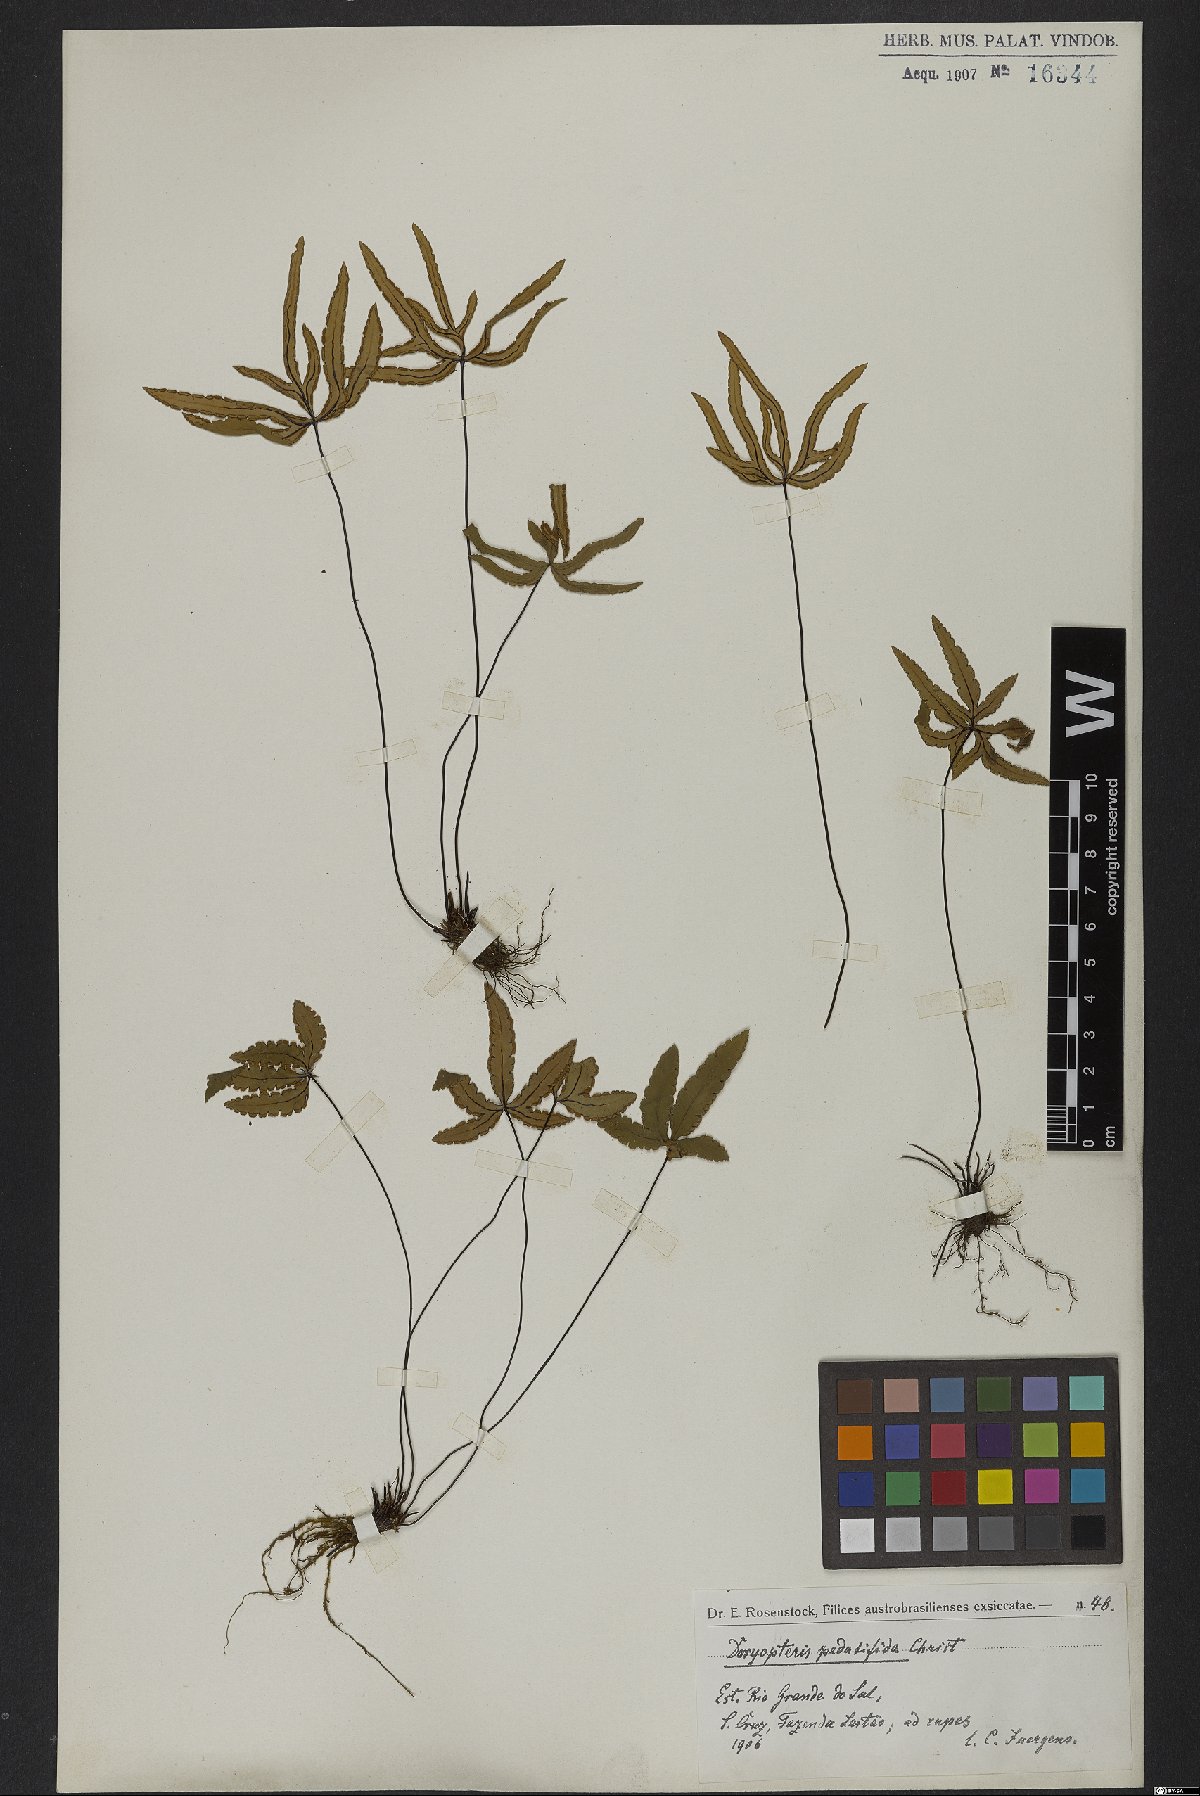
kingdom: Plantae
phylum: Tracheophyta
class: Polypodiopsida
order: Polypodiales
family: Pteridaceae
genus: Doryopteris
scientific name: Doryopteris triphylla
